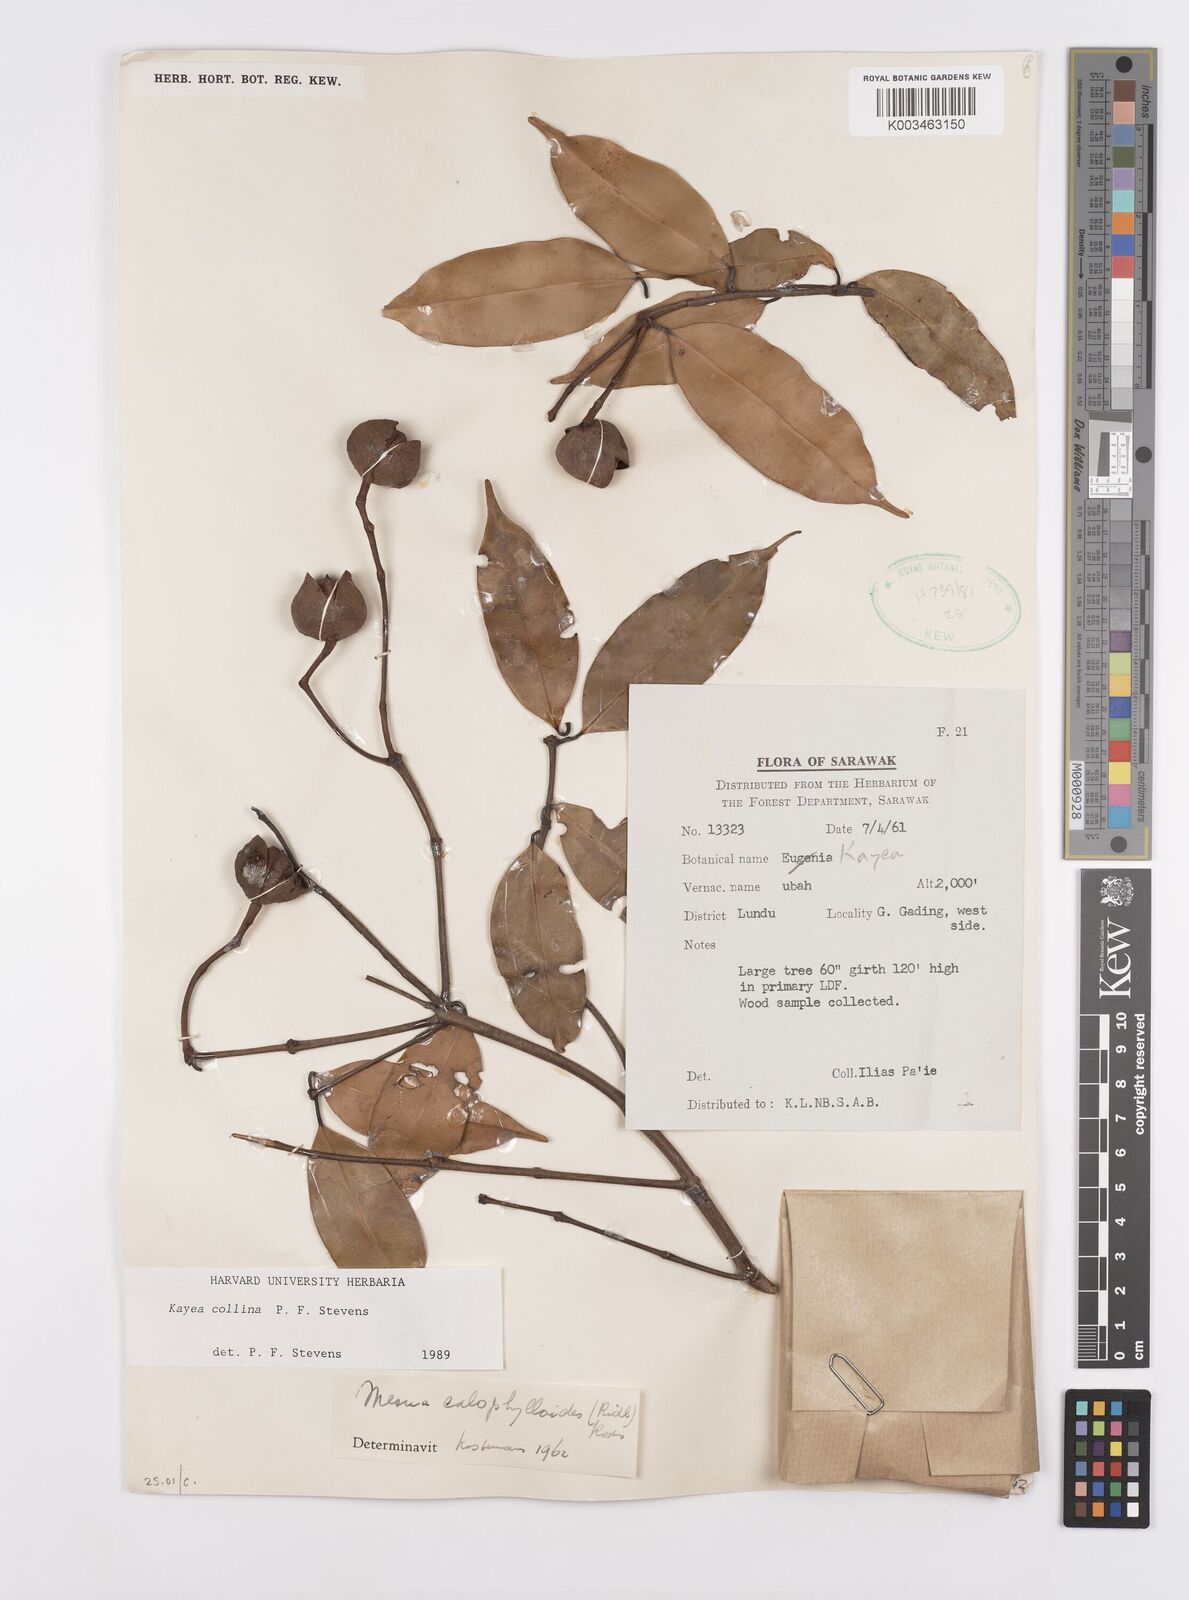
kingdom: Plantae
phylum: Tracheophyta
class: Magnoliopsida
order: Malpighiales
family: Calophyllaceae
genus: Kayea
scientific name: Kayea
